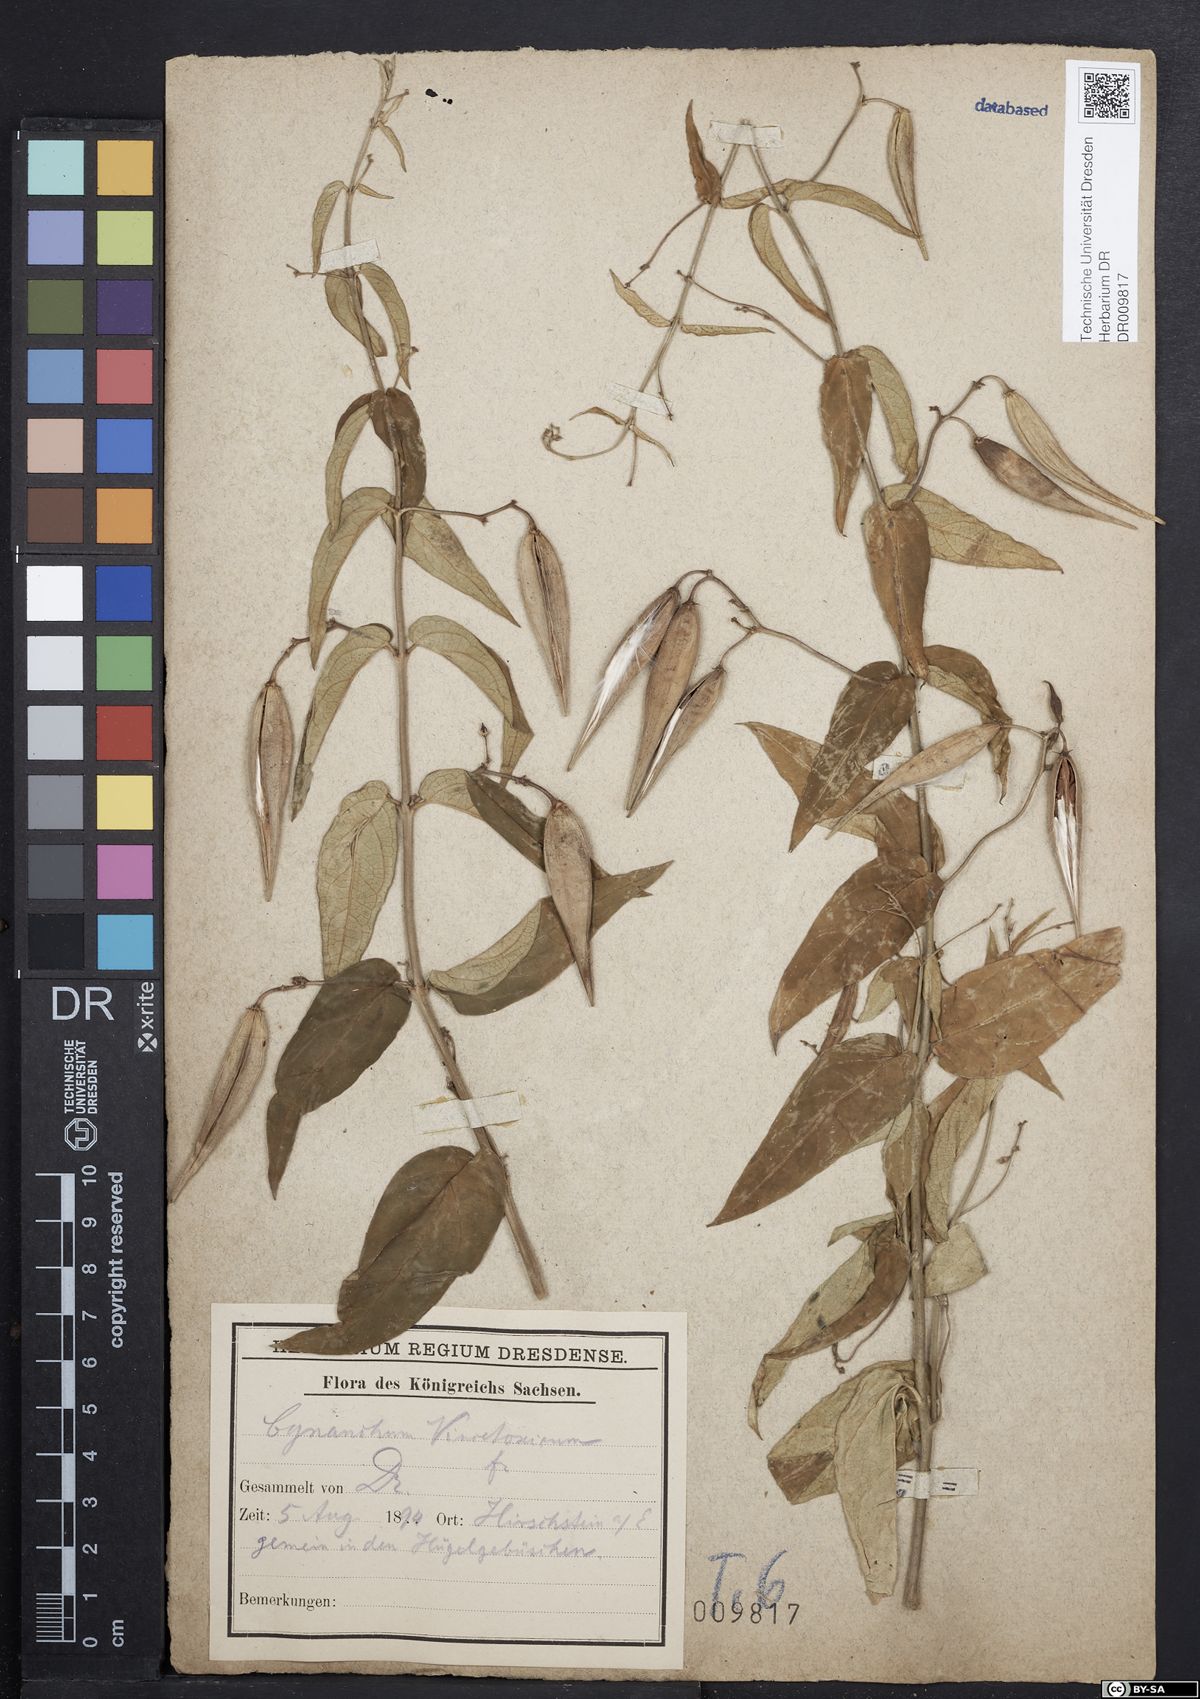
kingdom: Plantae
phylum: Tracheophyta
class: Magnoliopsida
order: Gentianales
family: Apocynaceae
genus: Vincetoxicum
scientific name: Vincetoxicum hirundinaria
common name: White swallowwort
